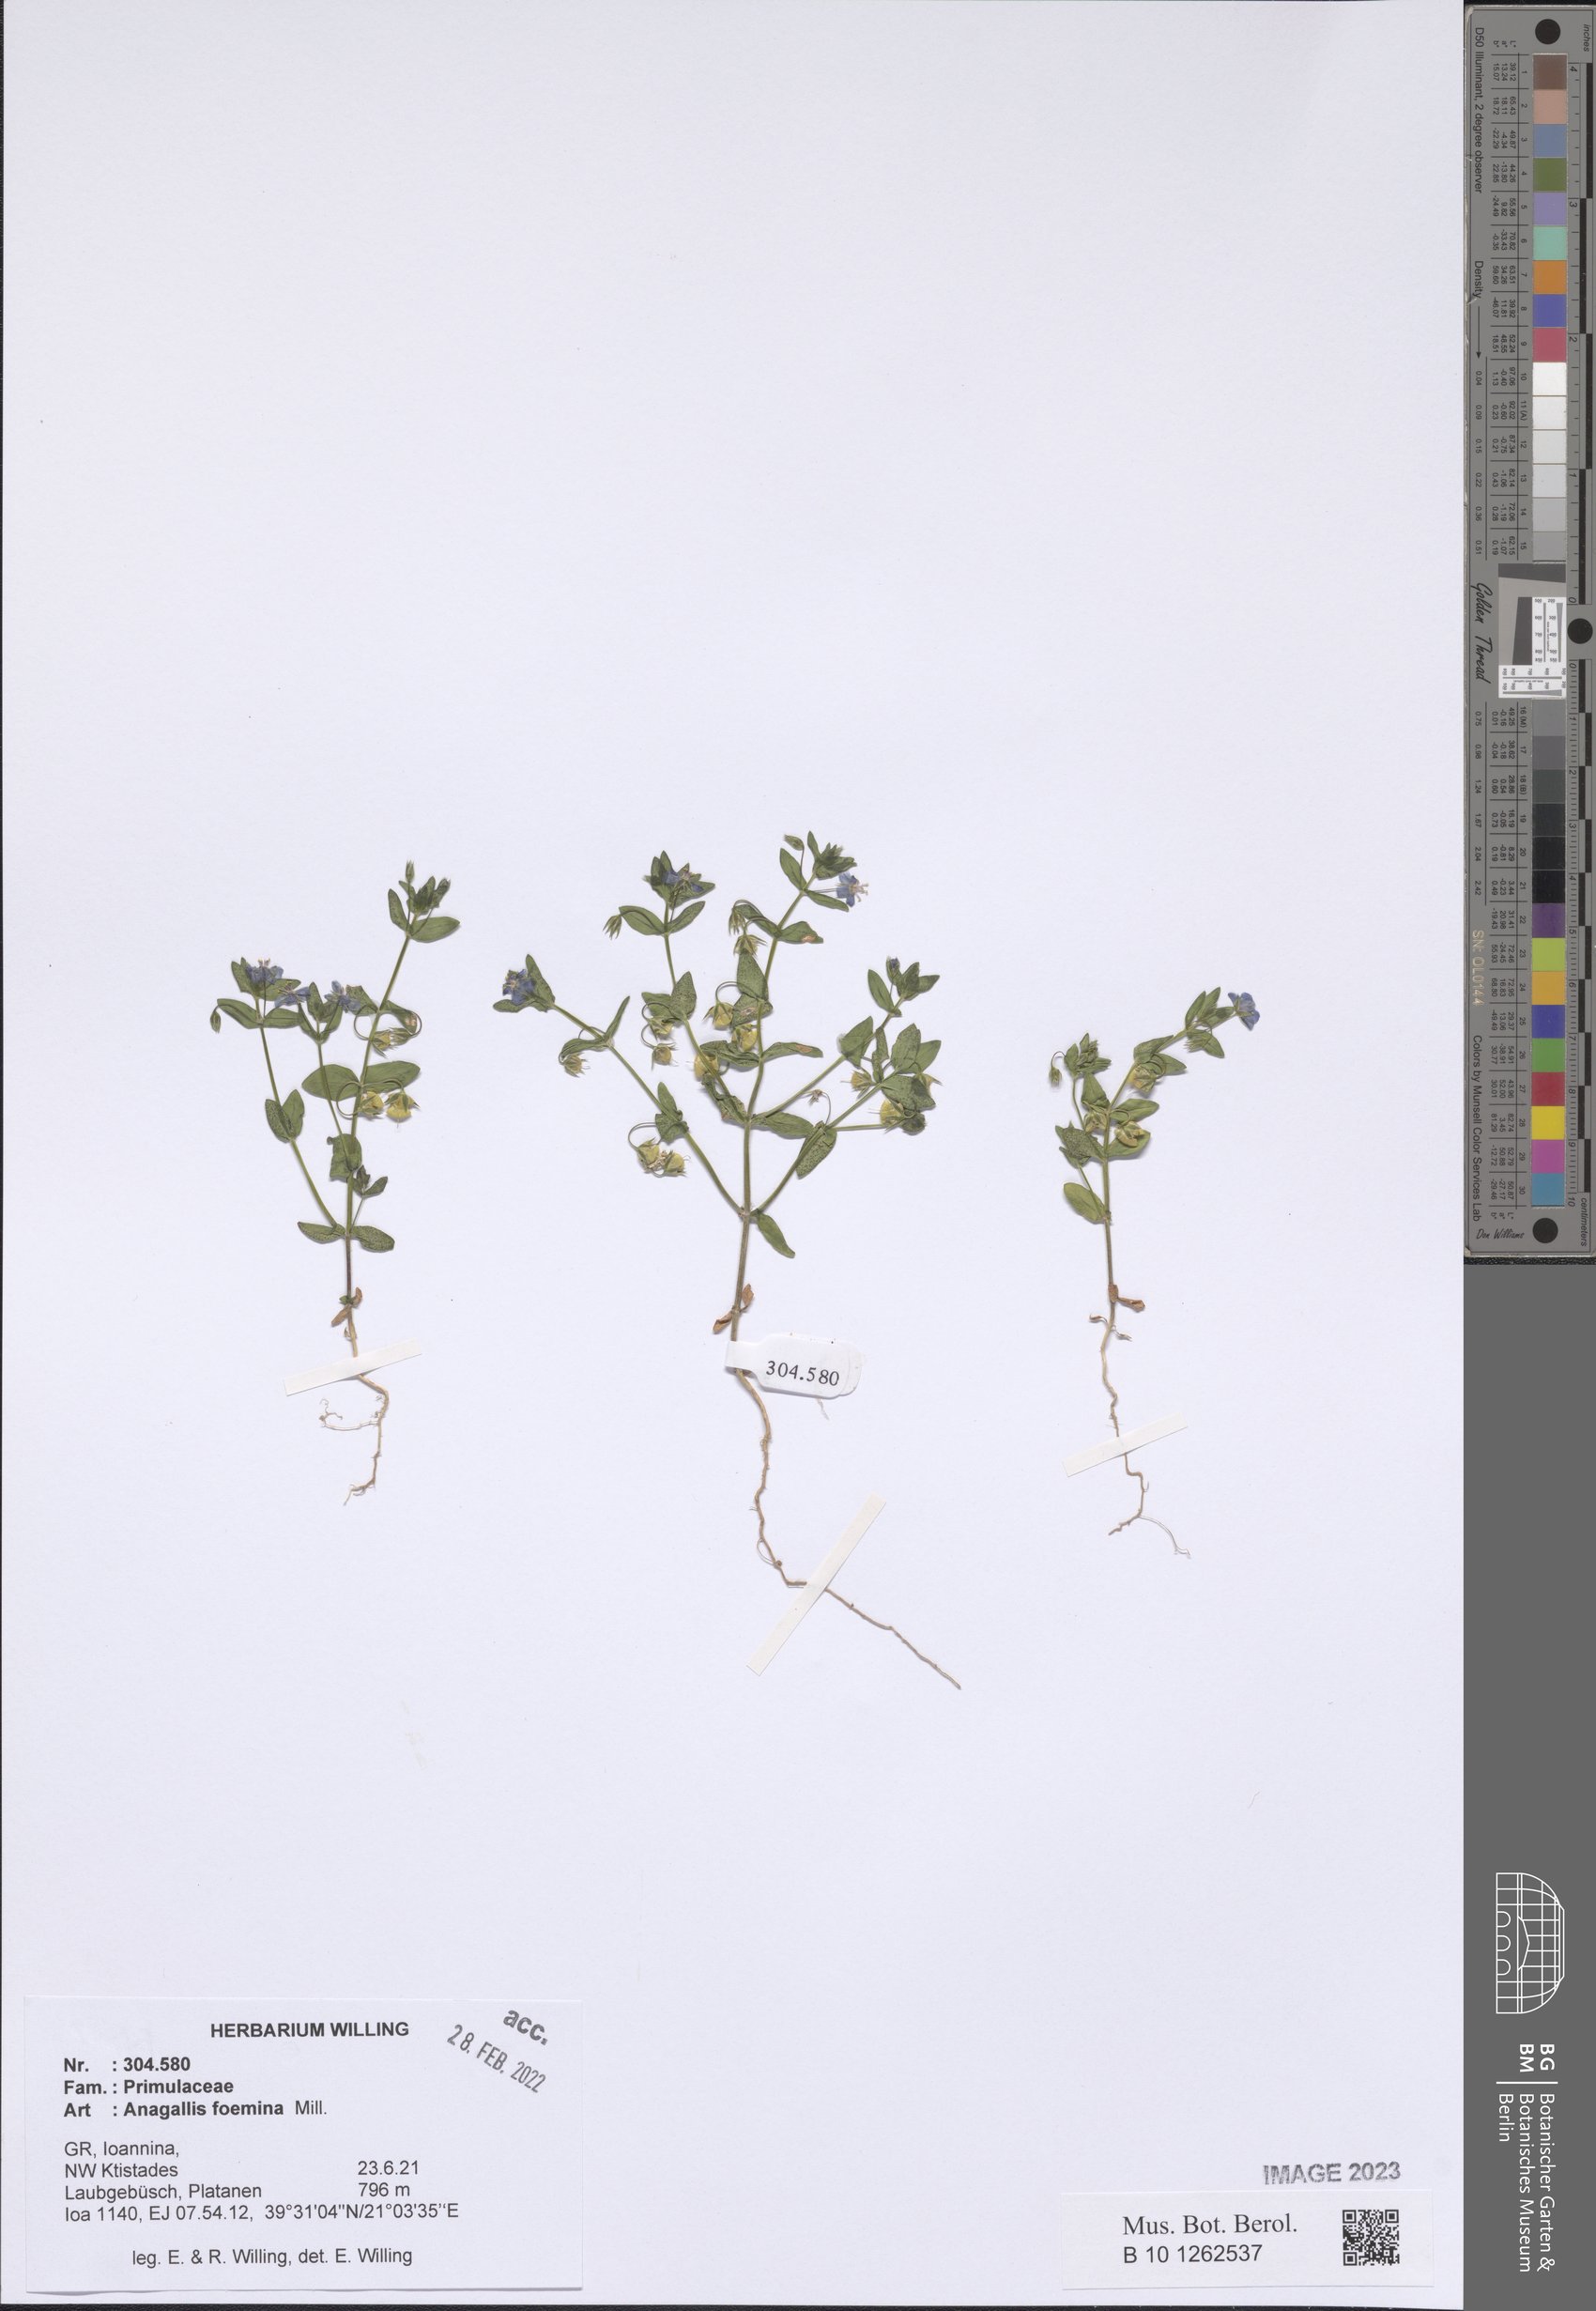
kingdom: Plantae
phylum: Tracheophyta
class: Magnoliopsida
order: Ericales
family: Primulaceae
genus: Lysimachia
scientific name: Lysimachia foemina
